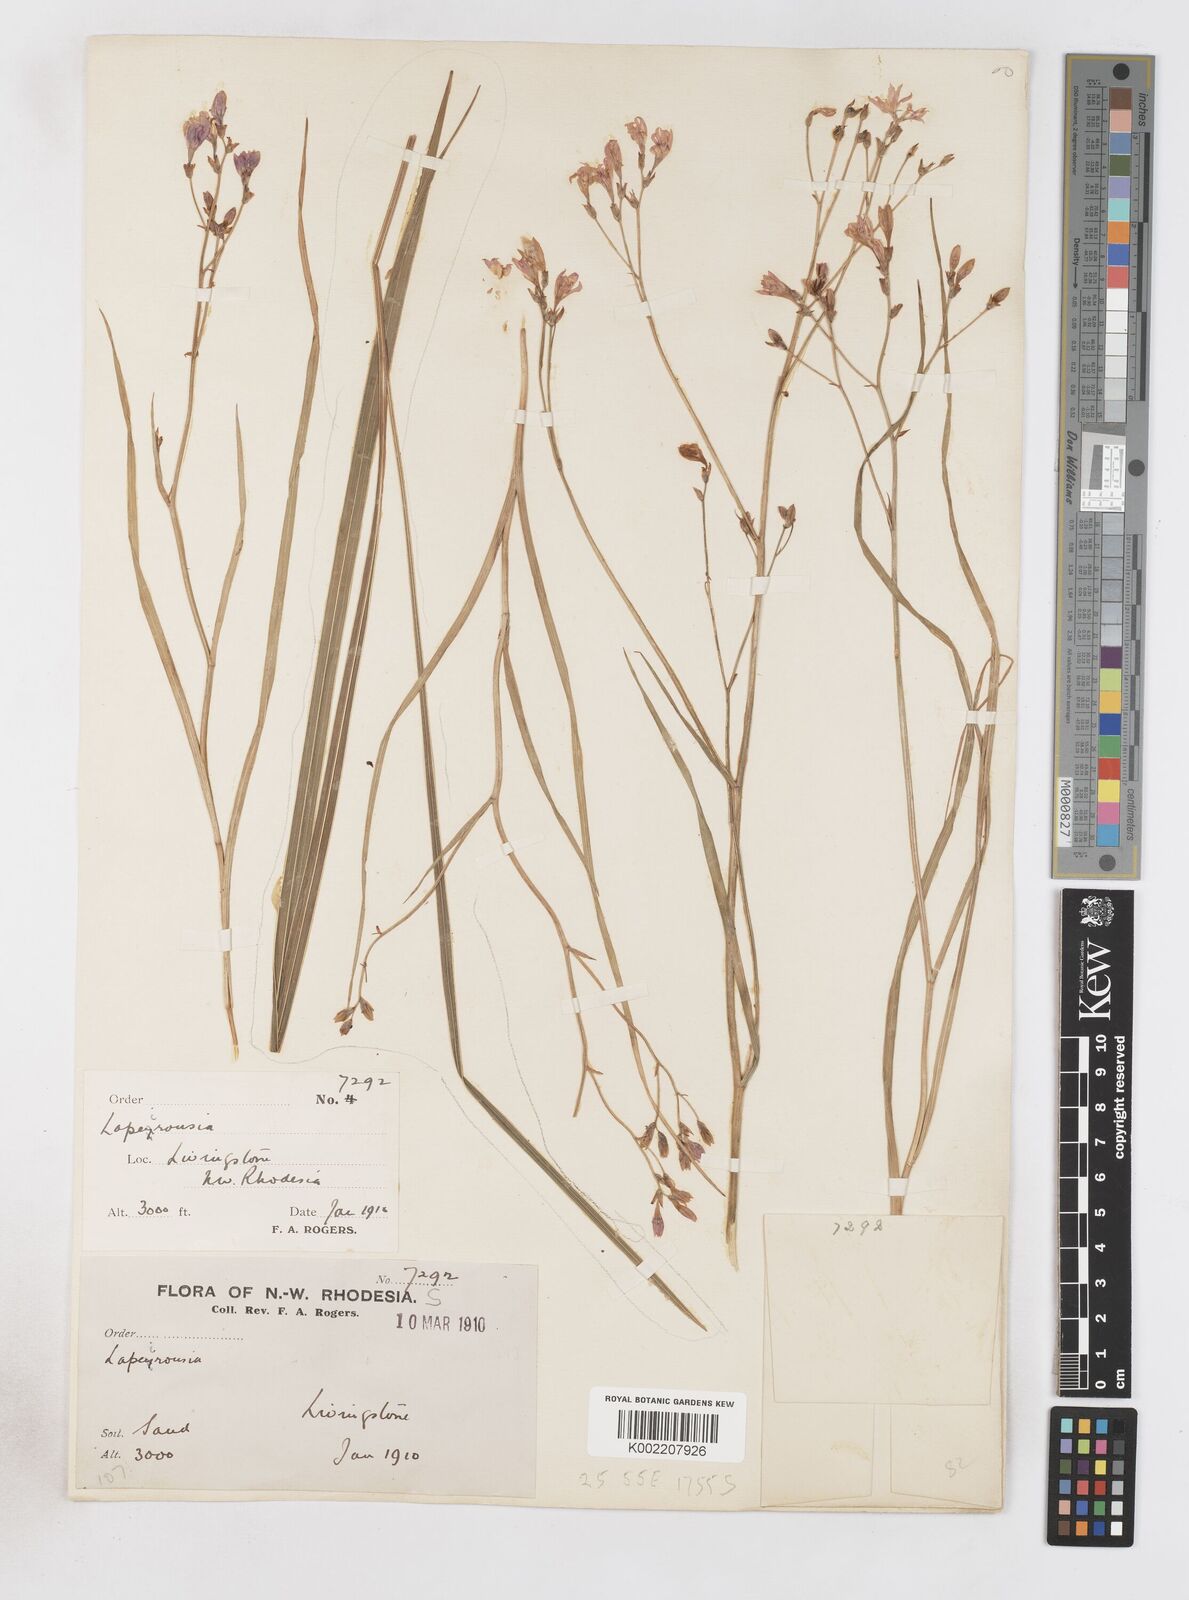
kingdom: Plantae
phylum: Tracheophyta
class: Liliopsida
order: Asparagales
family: Iridaceae
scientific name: Iridaceae
